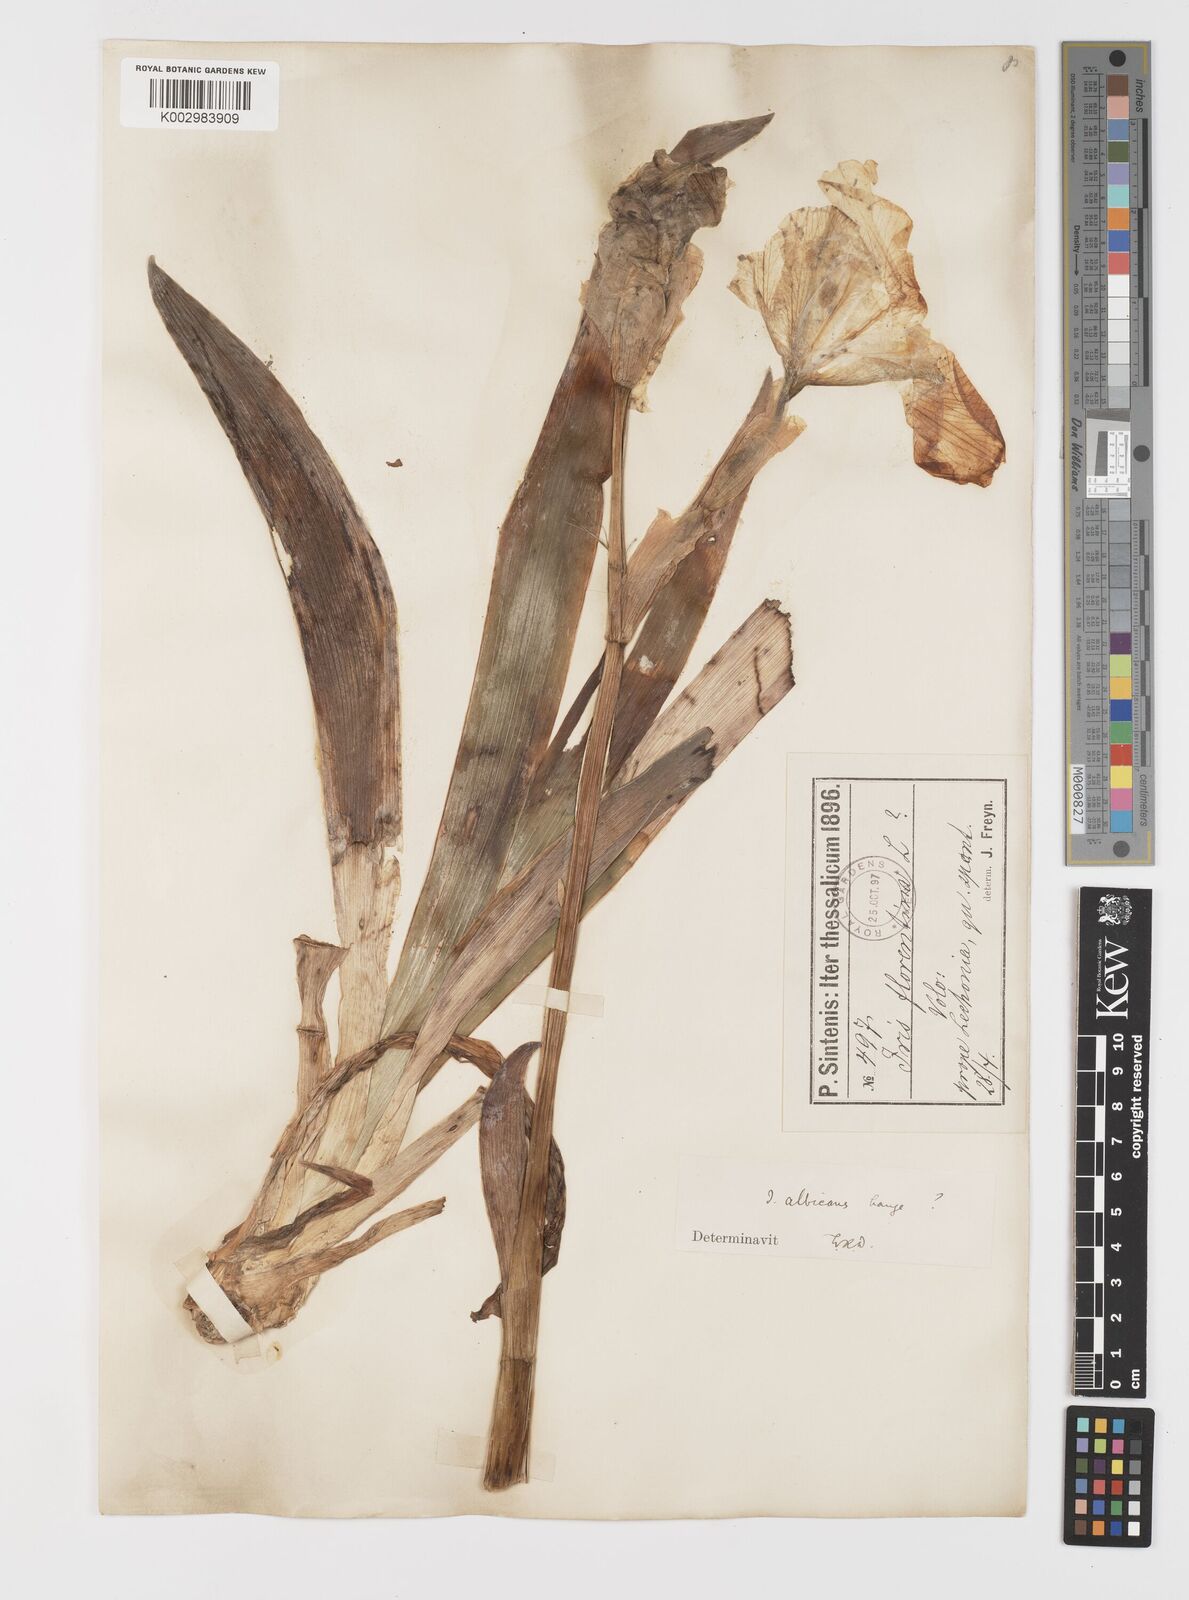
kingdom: Plantae
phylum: Tracheophyta
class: Liliopsida
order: Asparagales
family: Iridaceae
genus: Iris
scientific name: Iris florentina
